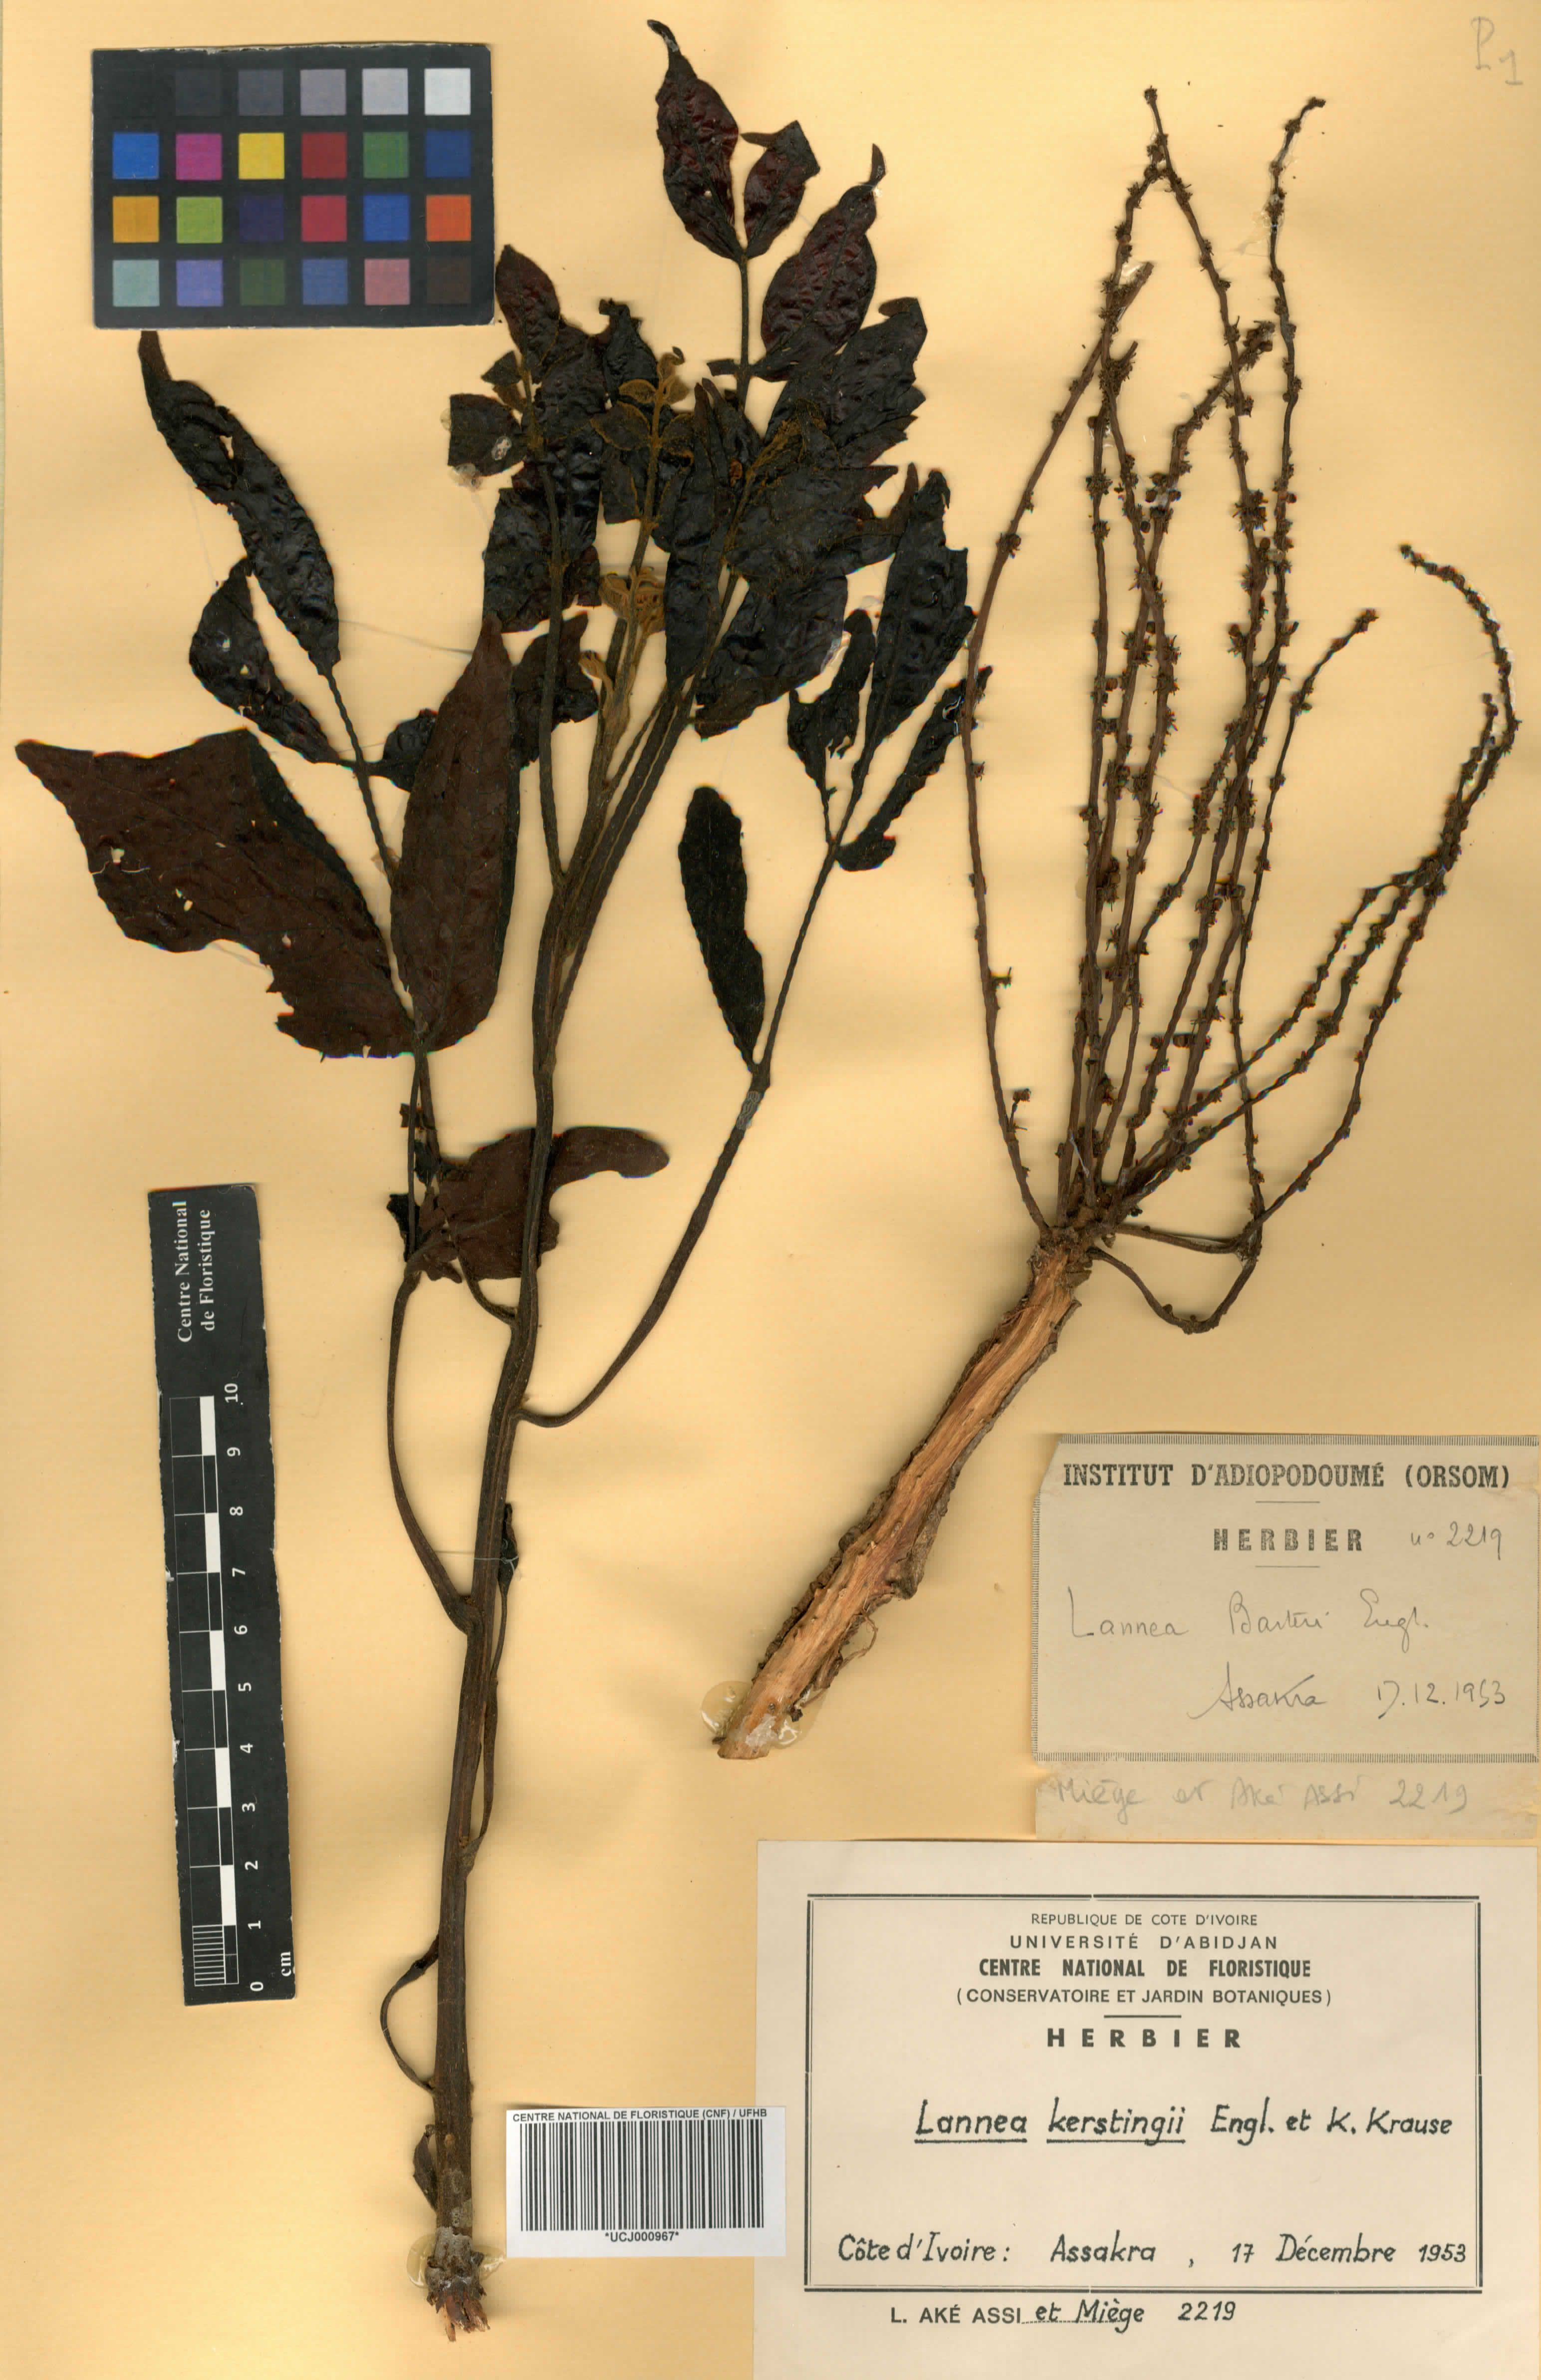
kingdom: Plantae
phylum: Tracheophyta
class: Magnoliopsida
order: Sapindales
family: Anacardiaceae
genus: Lannea
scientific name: Lannea barteri
